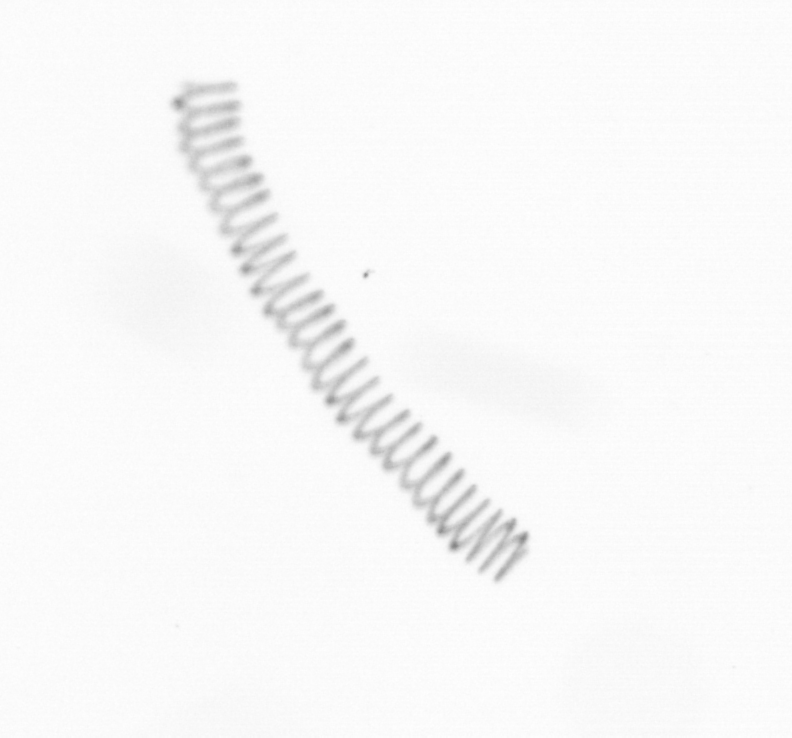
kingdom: Chromista
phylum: Ochrophyta
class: Bacillariophyceae
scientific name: Bacillariophyceae
